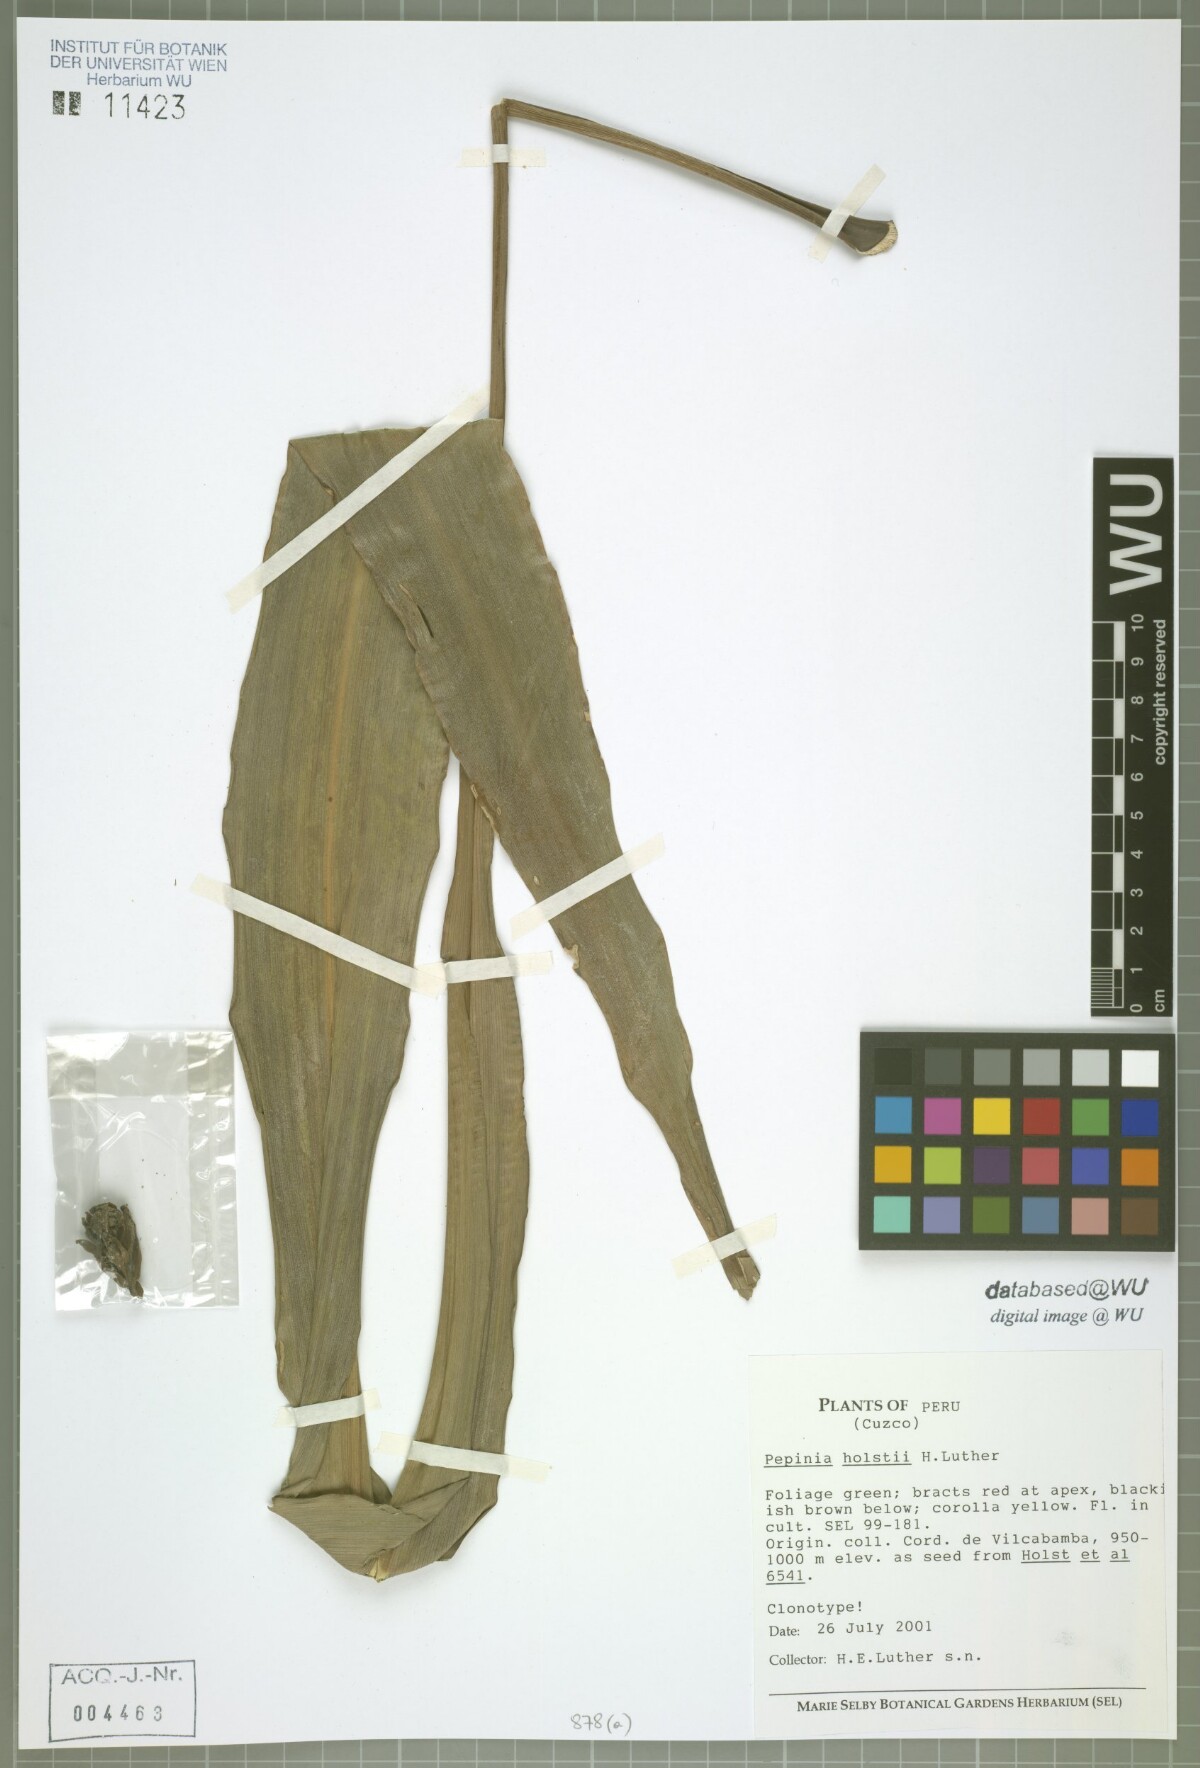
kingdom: Plantae
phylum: Tracheophyta
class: Liliopsida
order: Poales
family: Bromeliaceae
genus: Pitcairnia
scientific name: Pitcairnia holstii
